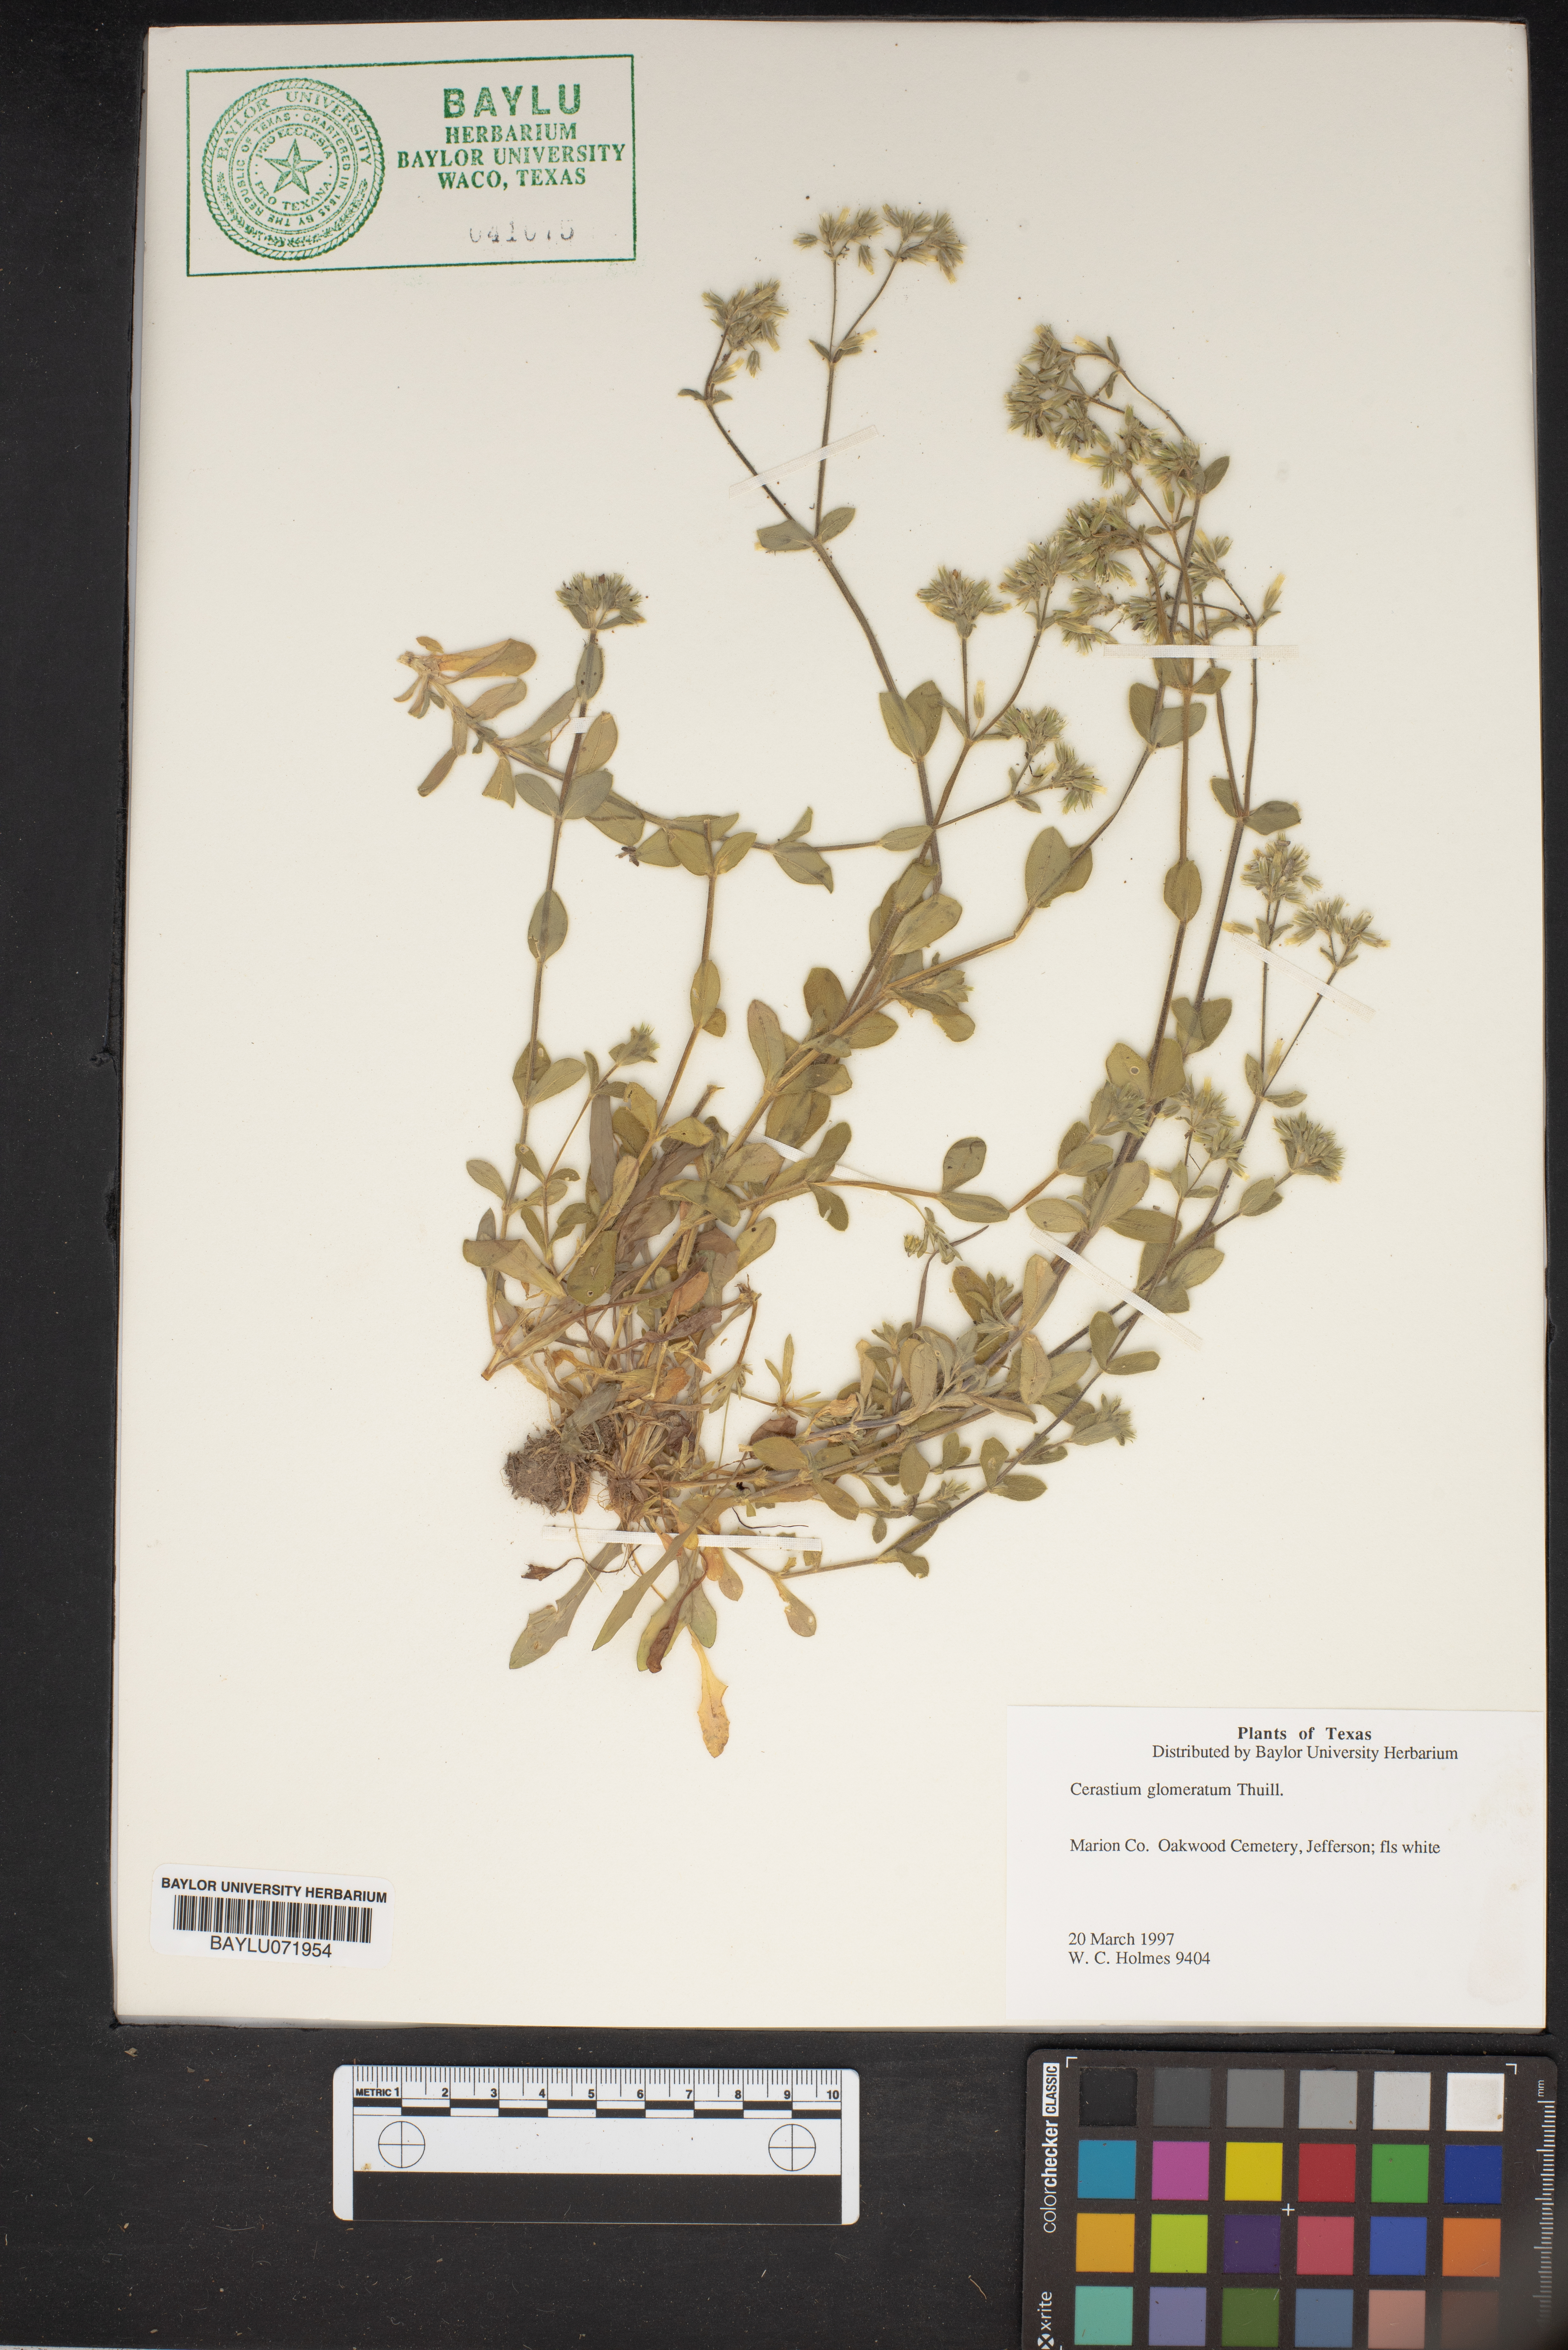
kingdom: Plantae
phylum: Tracheophyta
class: Magnoliopsida
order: Caryophyllales
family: Caryophyllaceae
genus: Cerastium
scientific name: Cerastium glomeratum
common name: Sticky chickweed
